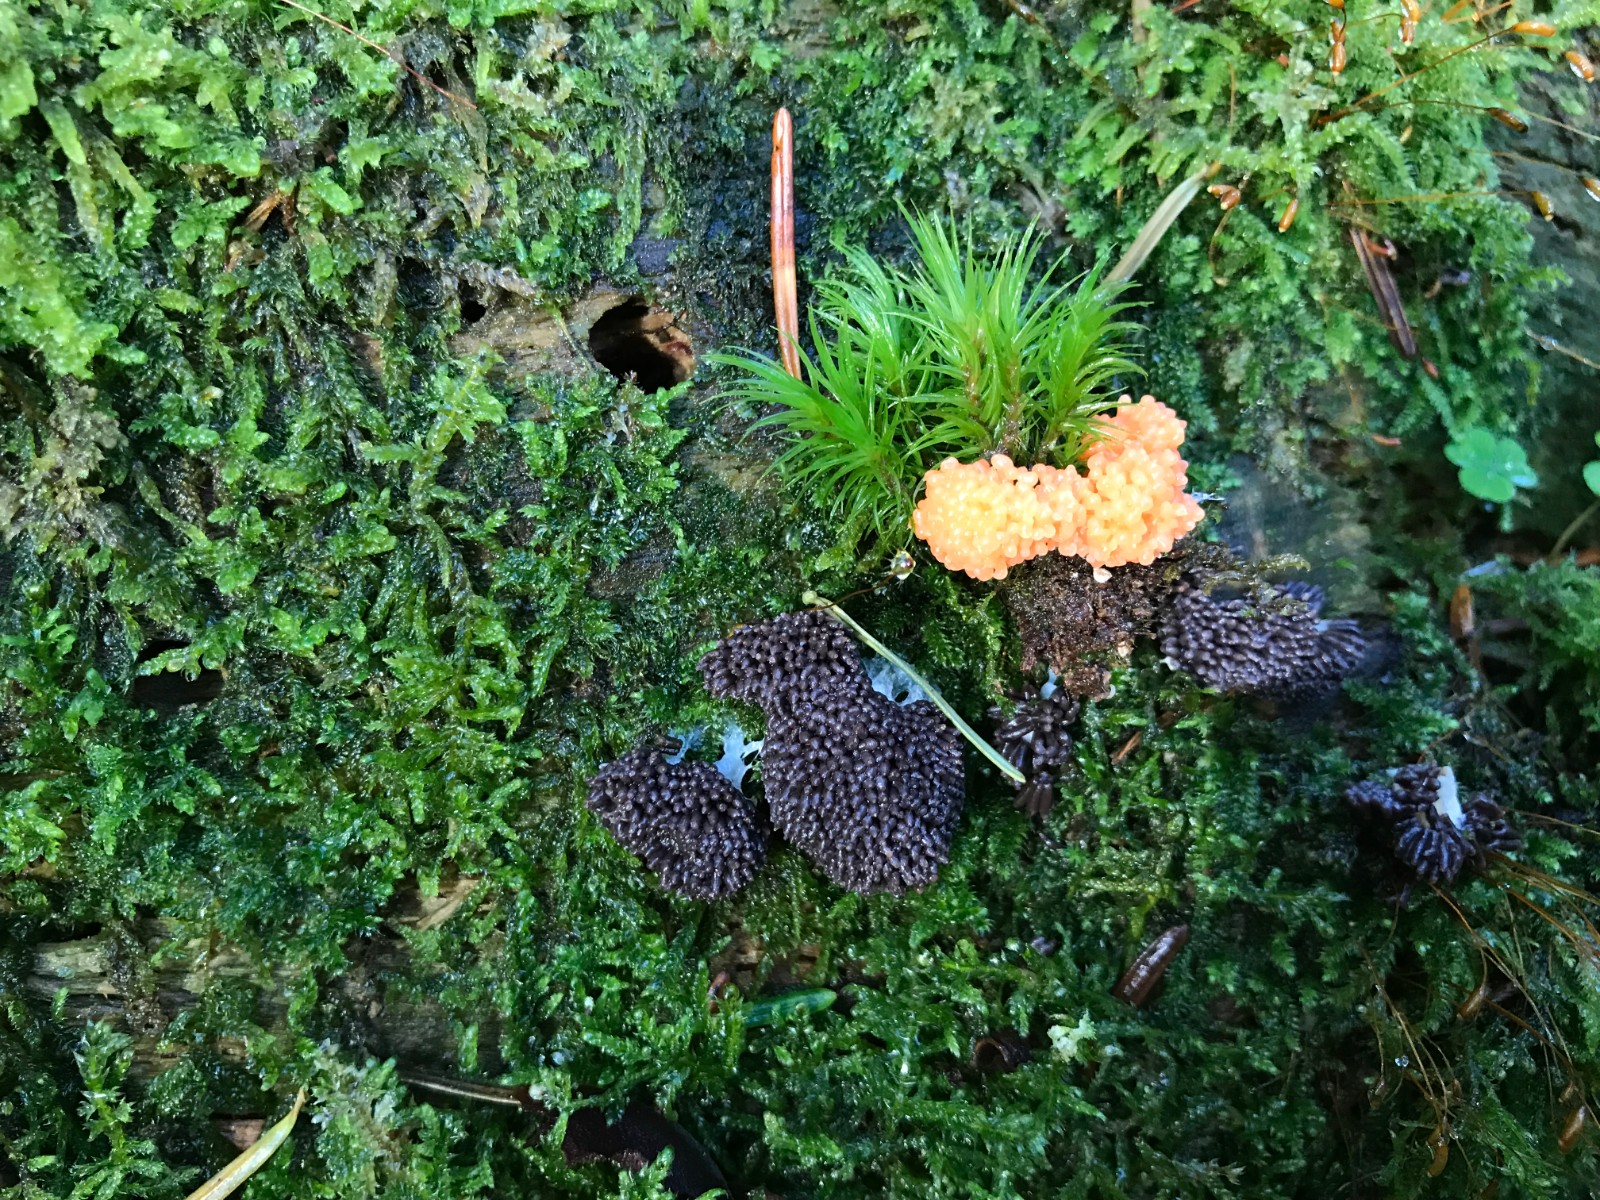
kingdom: Protozoa
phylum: Mycetozoa
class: Myxomycetes
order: Cribrariales
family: Tubiferaceae
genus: Tubifera
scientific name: Tubifera ferruginosa
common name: kanel-støvrør
